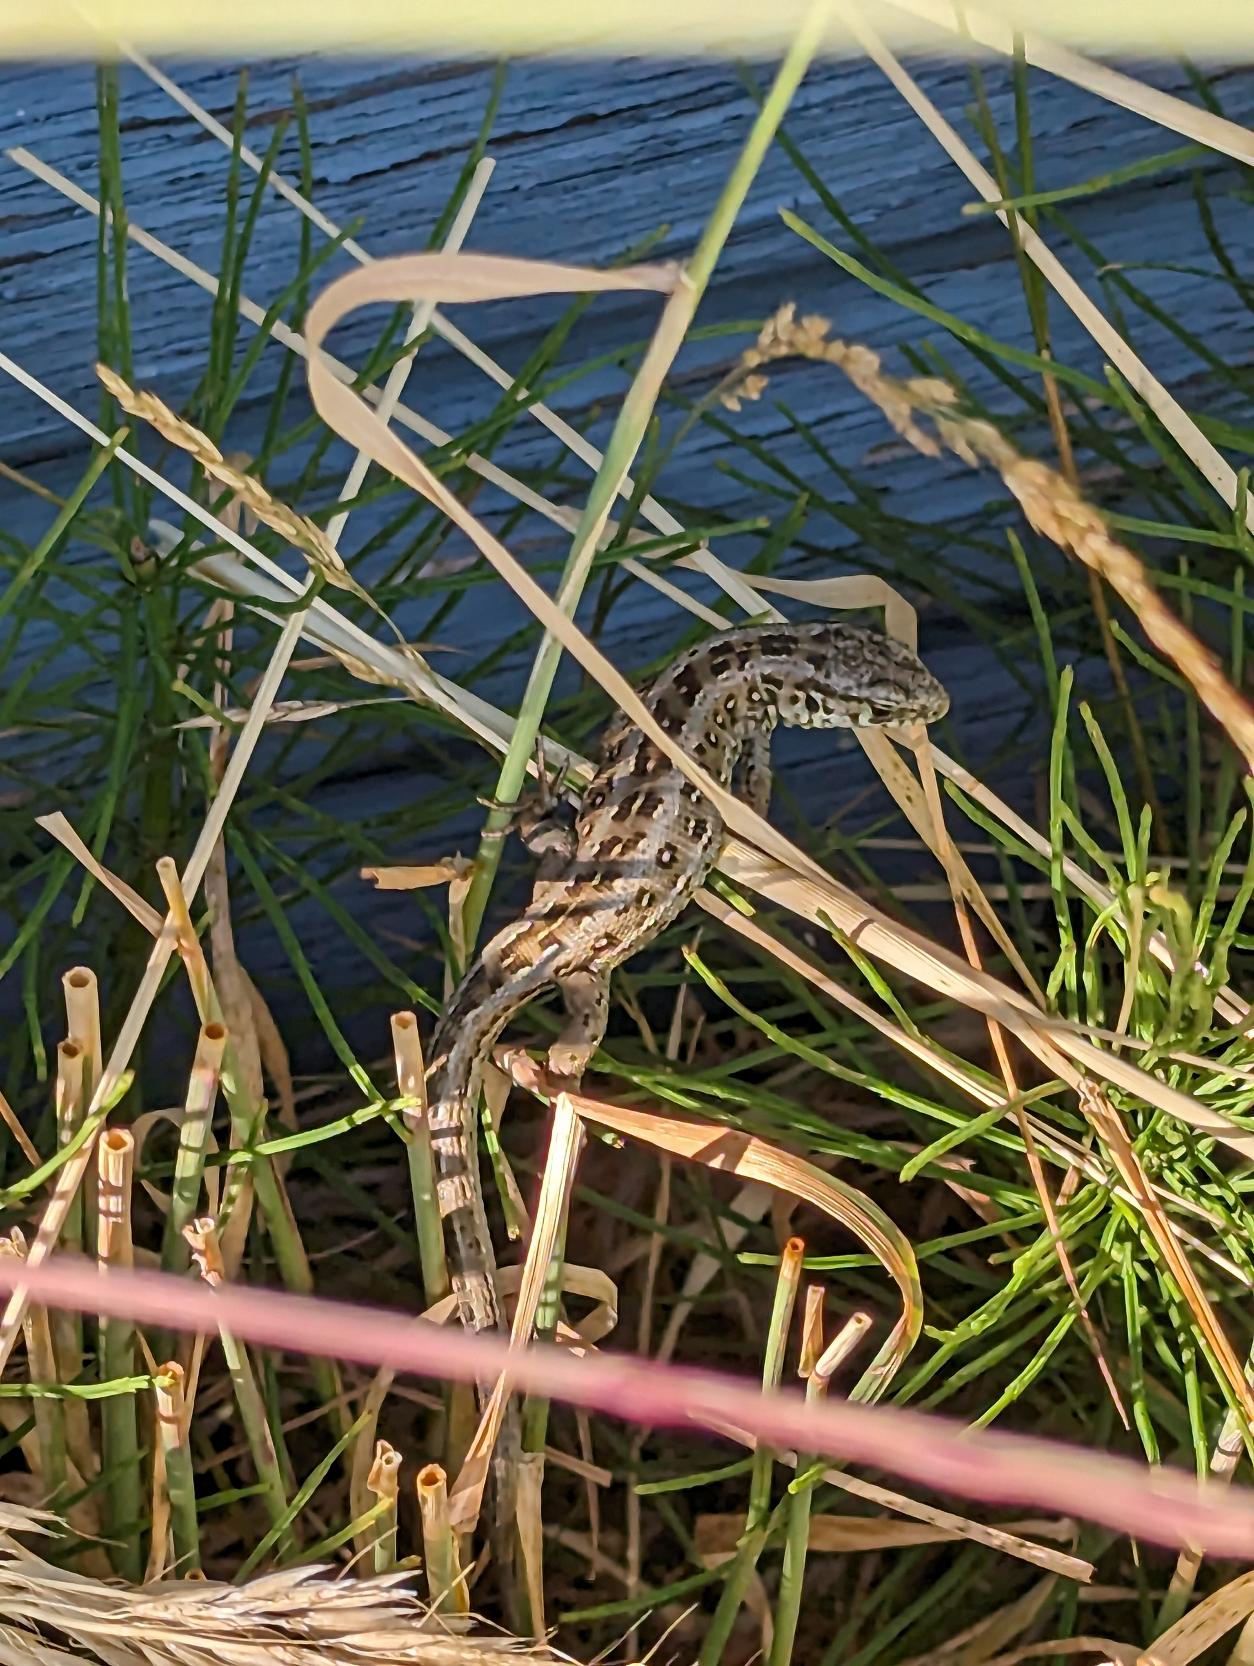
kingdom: Animalia
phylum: Chordata
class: Squamata
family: Lacertidae
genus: Lacerta
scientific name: Lacerta agilis
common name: Markfirben
